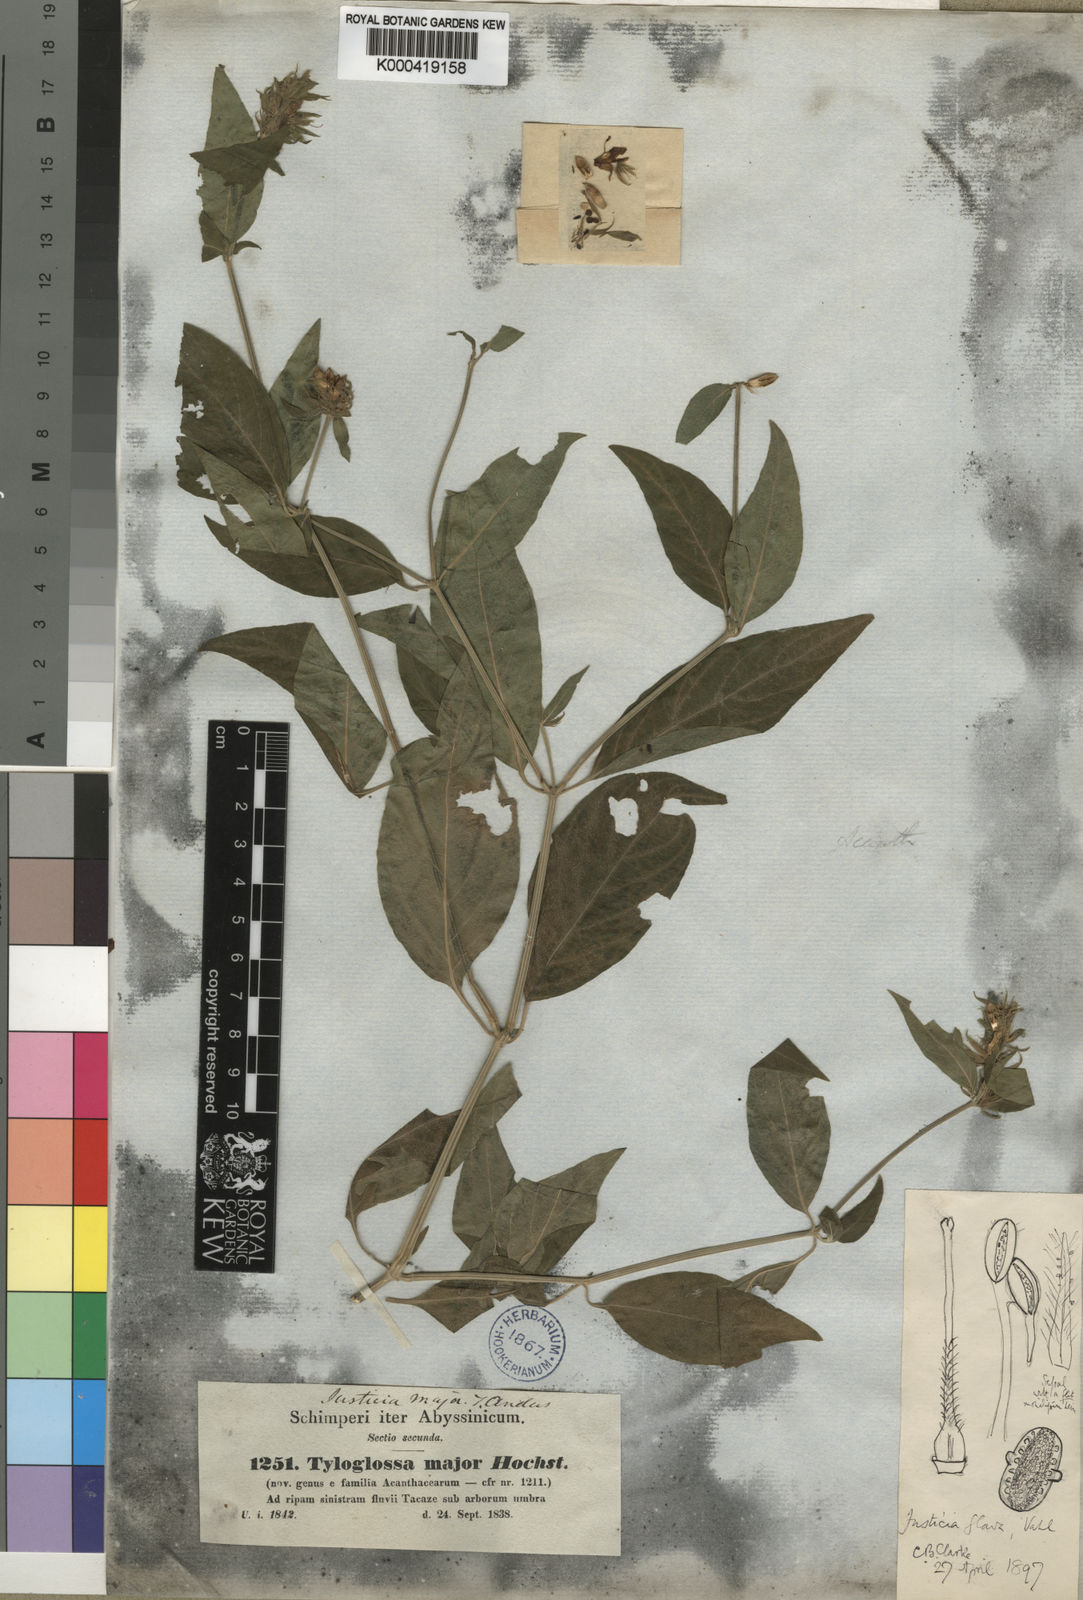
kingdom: Plantae
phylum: Tracheophyta
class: Magnoliopsida
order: Lamiales
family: Acanthaceae
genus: Justicia
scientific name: Justicia flava
